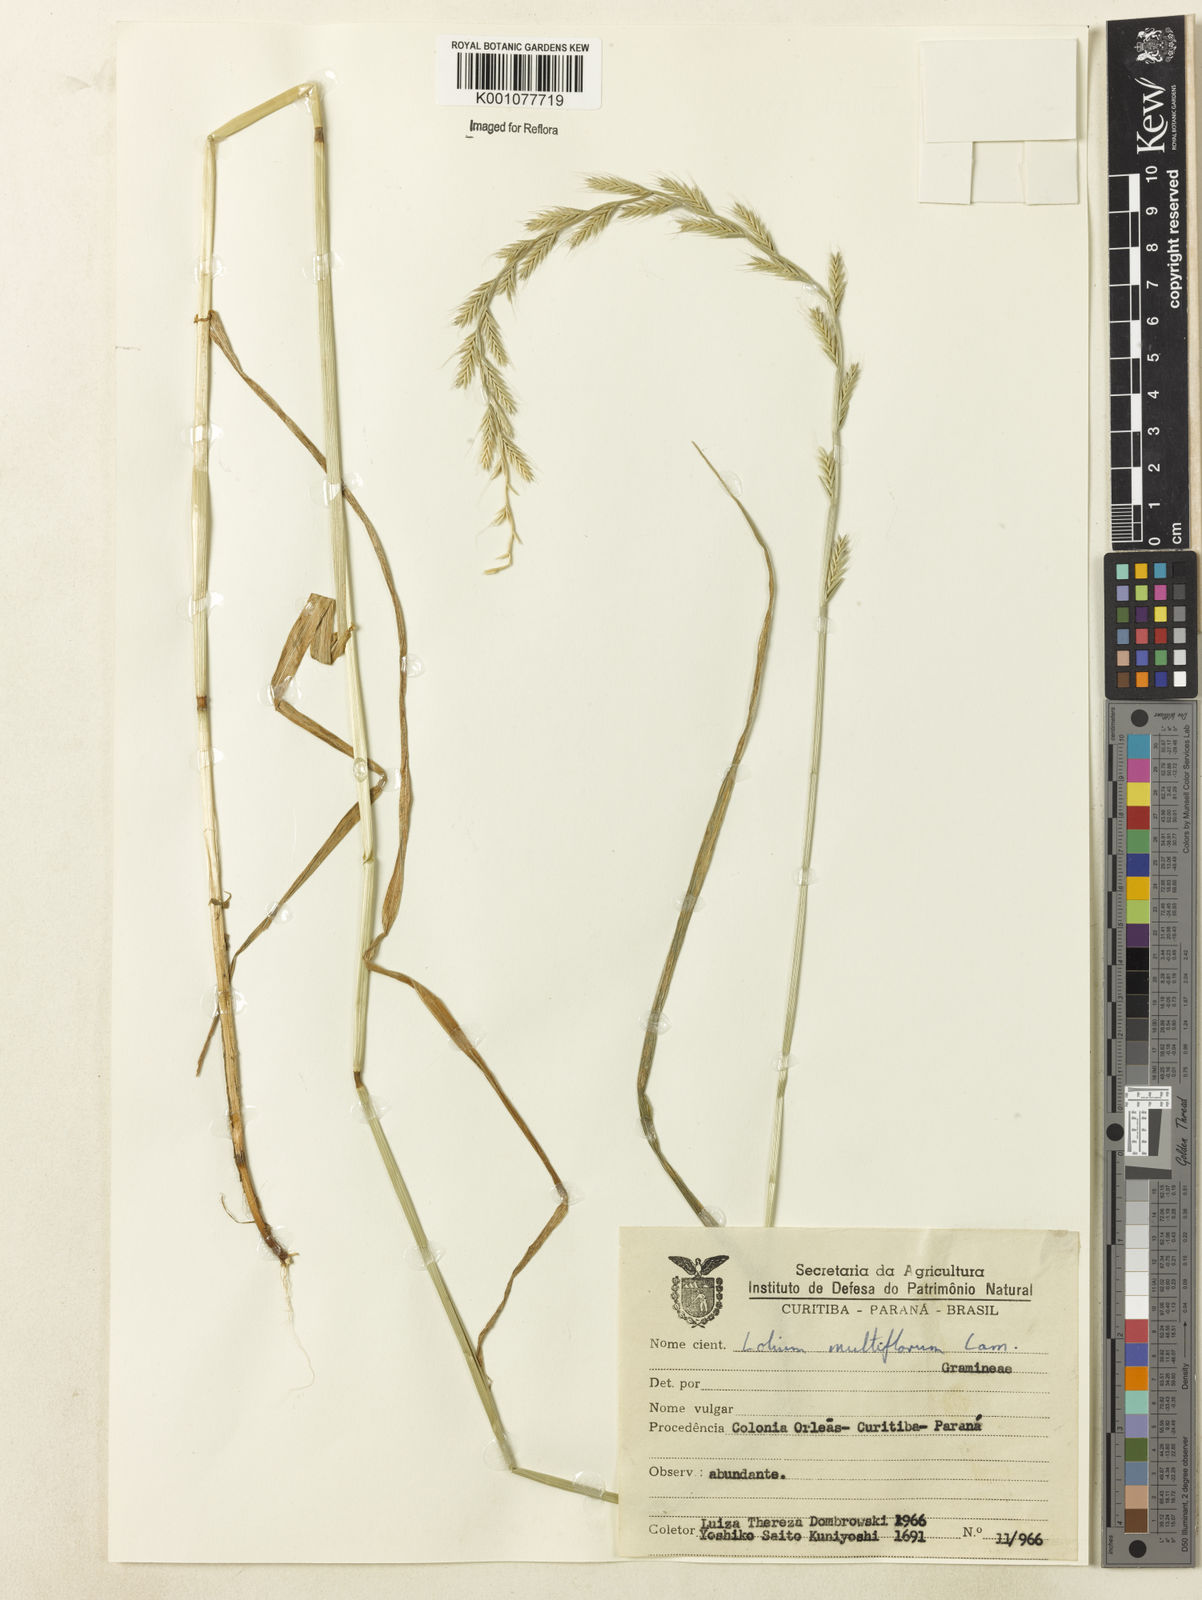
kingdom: Plantae
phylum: Tracheophyta
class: Liliopsida
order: Poales
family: Poaceae
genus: Lolium
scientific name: Lolium multiflorum
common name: Annual ryegrass
